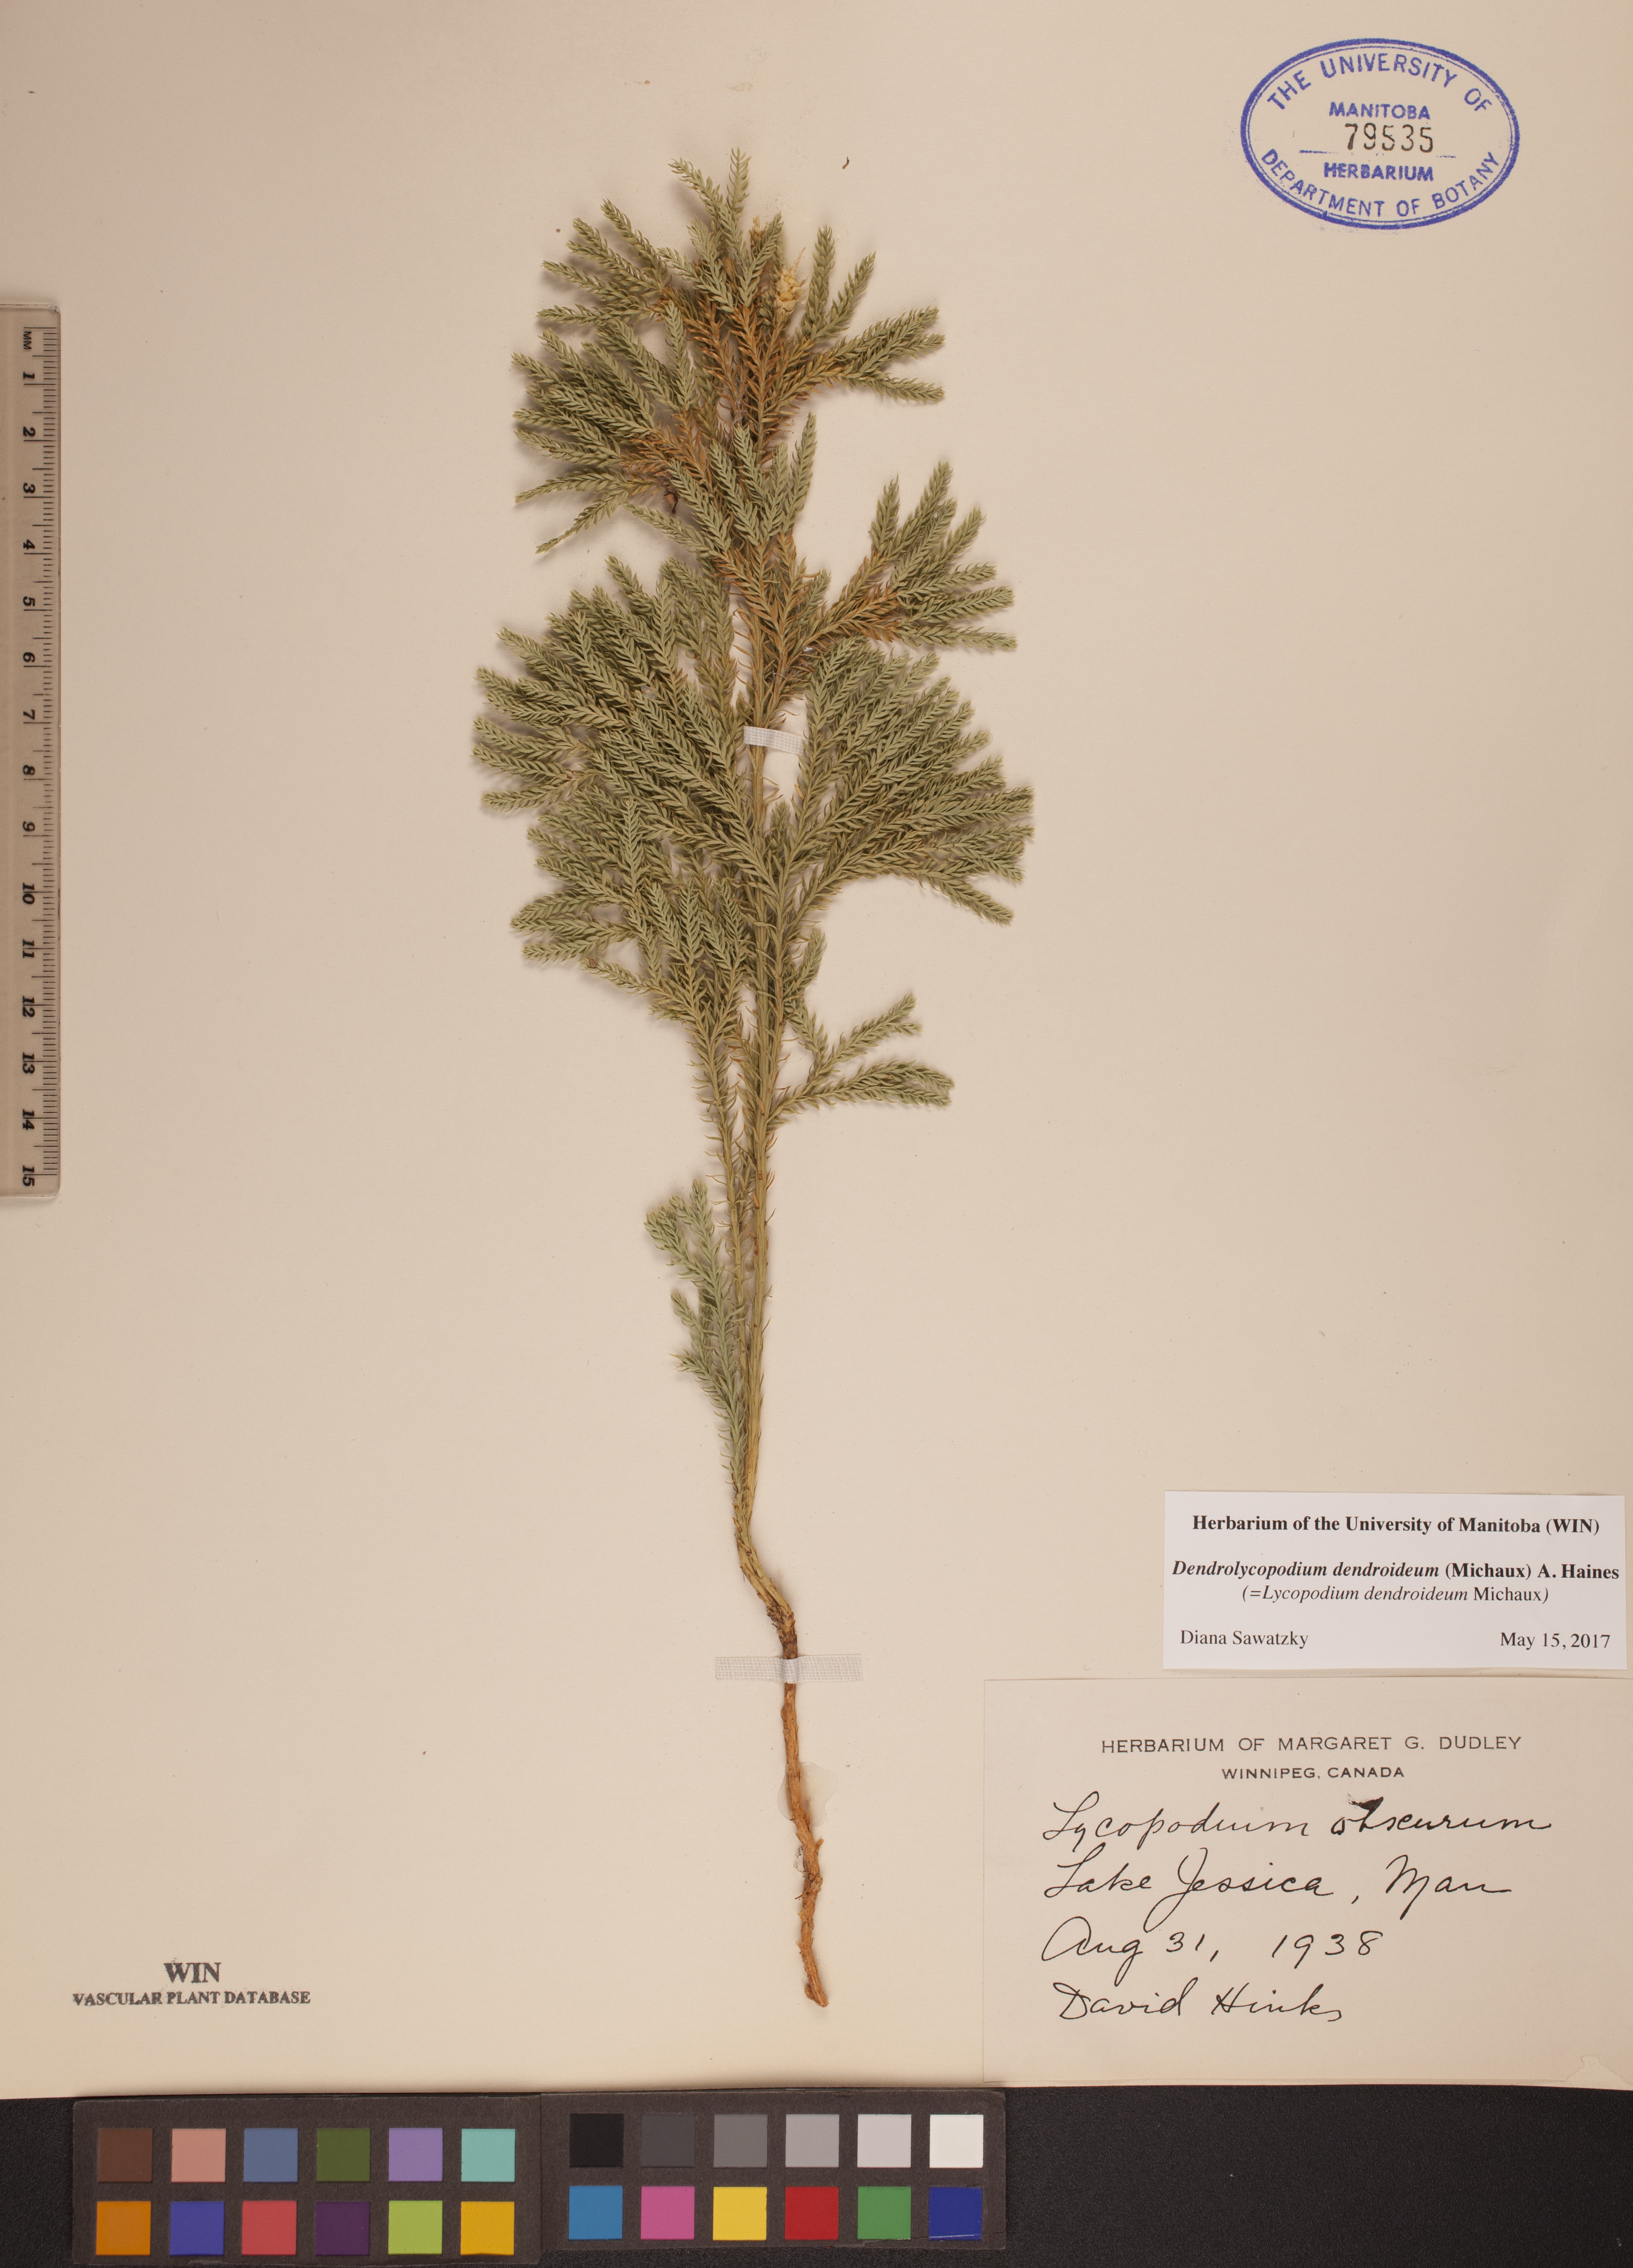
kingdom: Plantae
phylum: Tracheophyta
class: Lycopodiopsida
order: Lycopodiales
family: Lycopodiaceae
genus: Dendrolycopodium
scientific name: Dendrolycopodium dendroideum
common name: Northern tree-clubmoss
